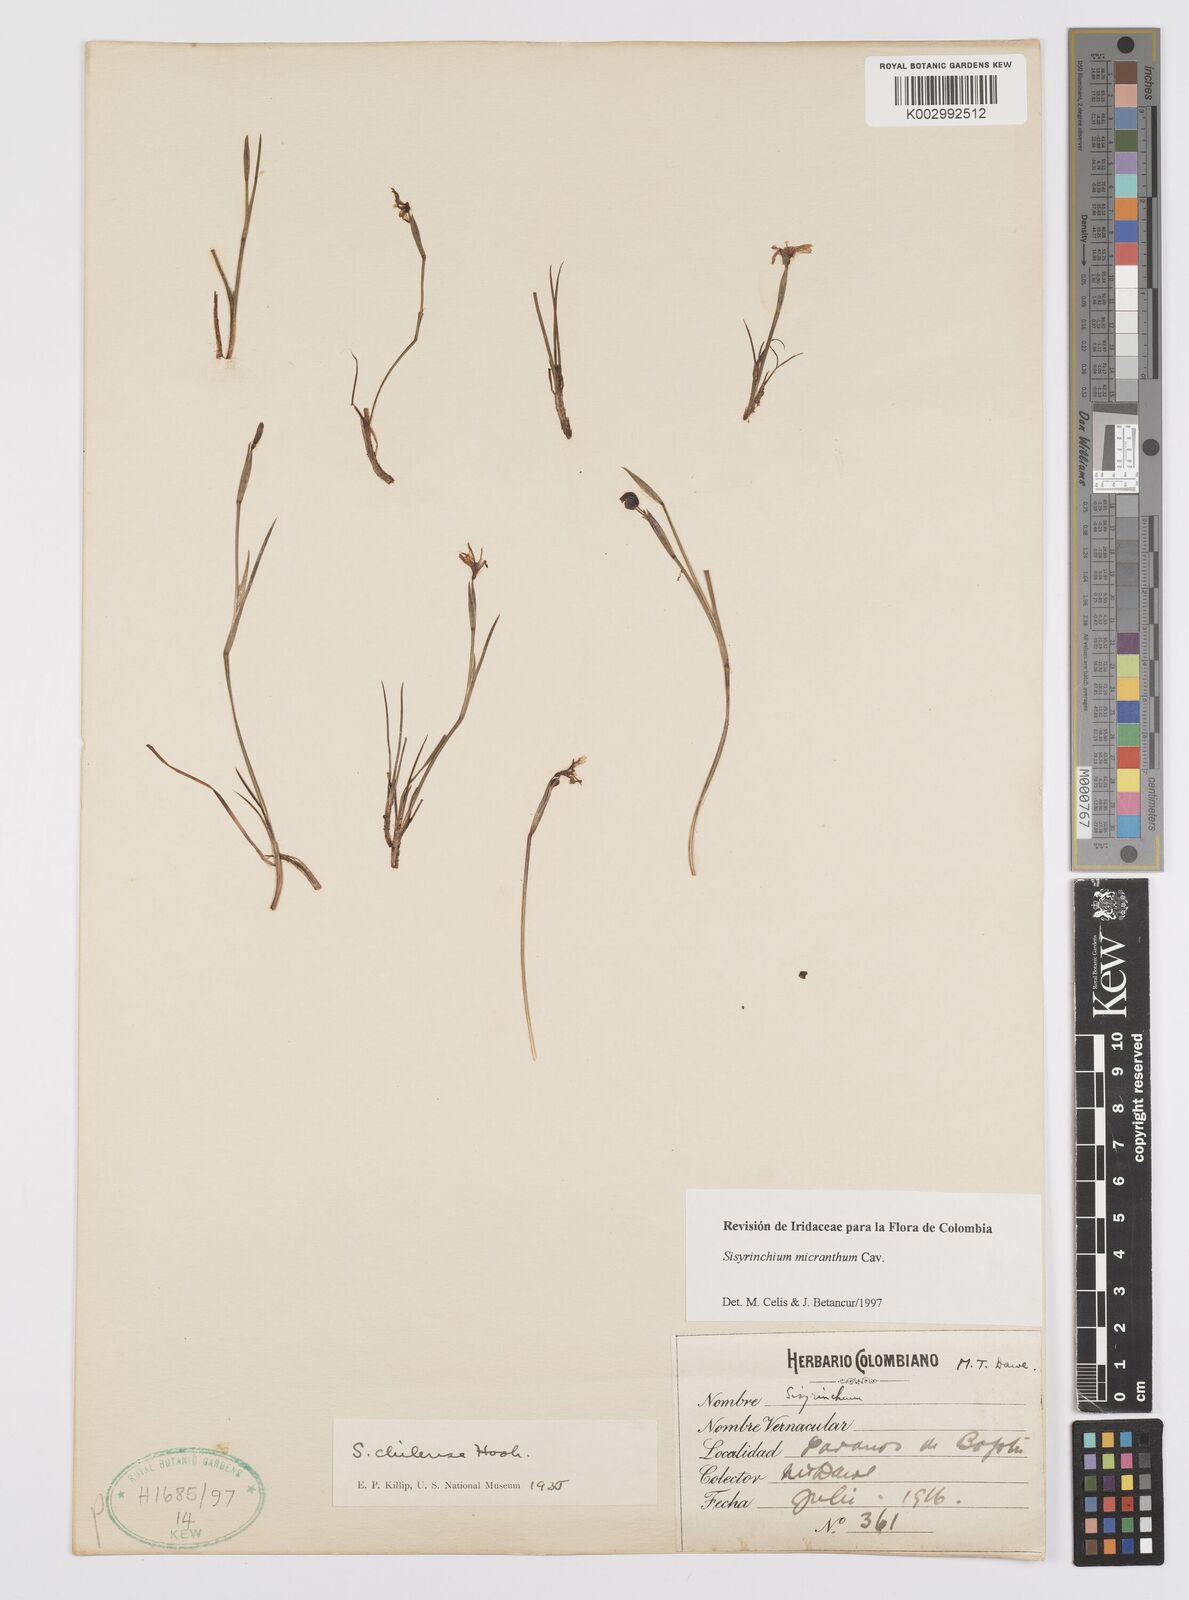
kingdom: Plantae
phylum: Tracheophyta
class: Liliopsida
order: Asparagales
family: Iridaceae
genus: Sisyrinchium
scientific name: Sisyrinchium micranthum
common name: Bermuda pigroot
